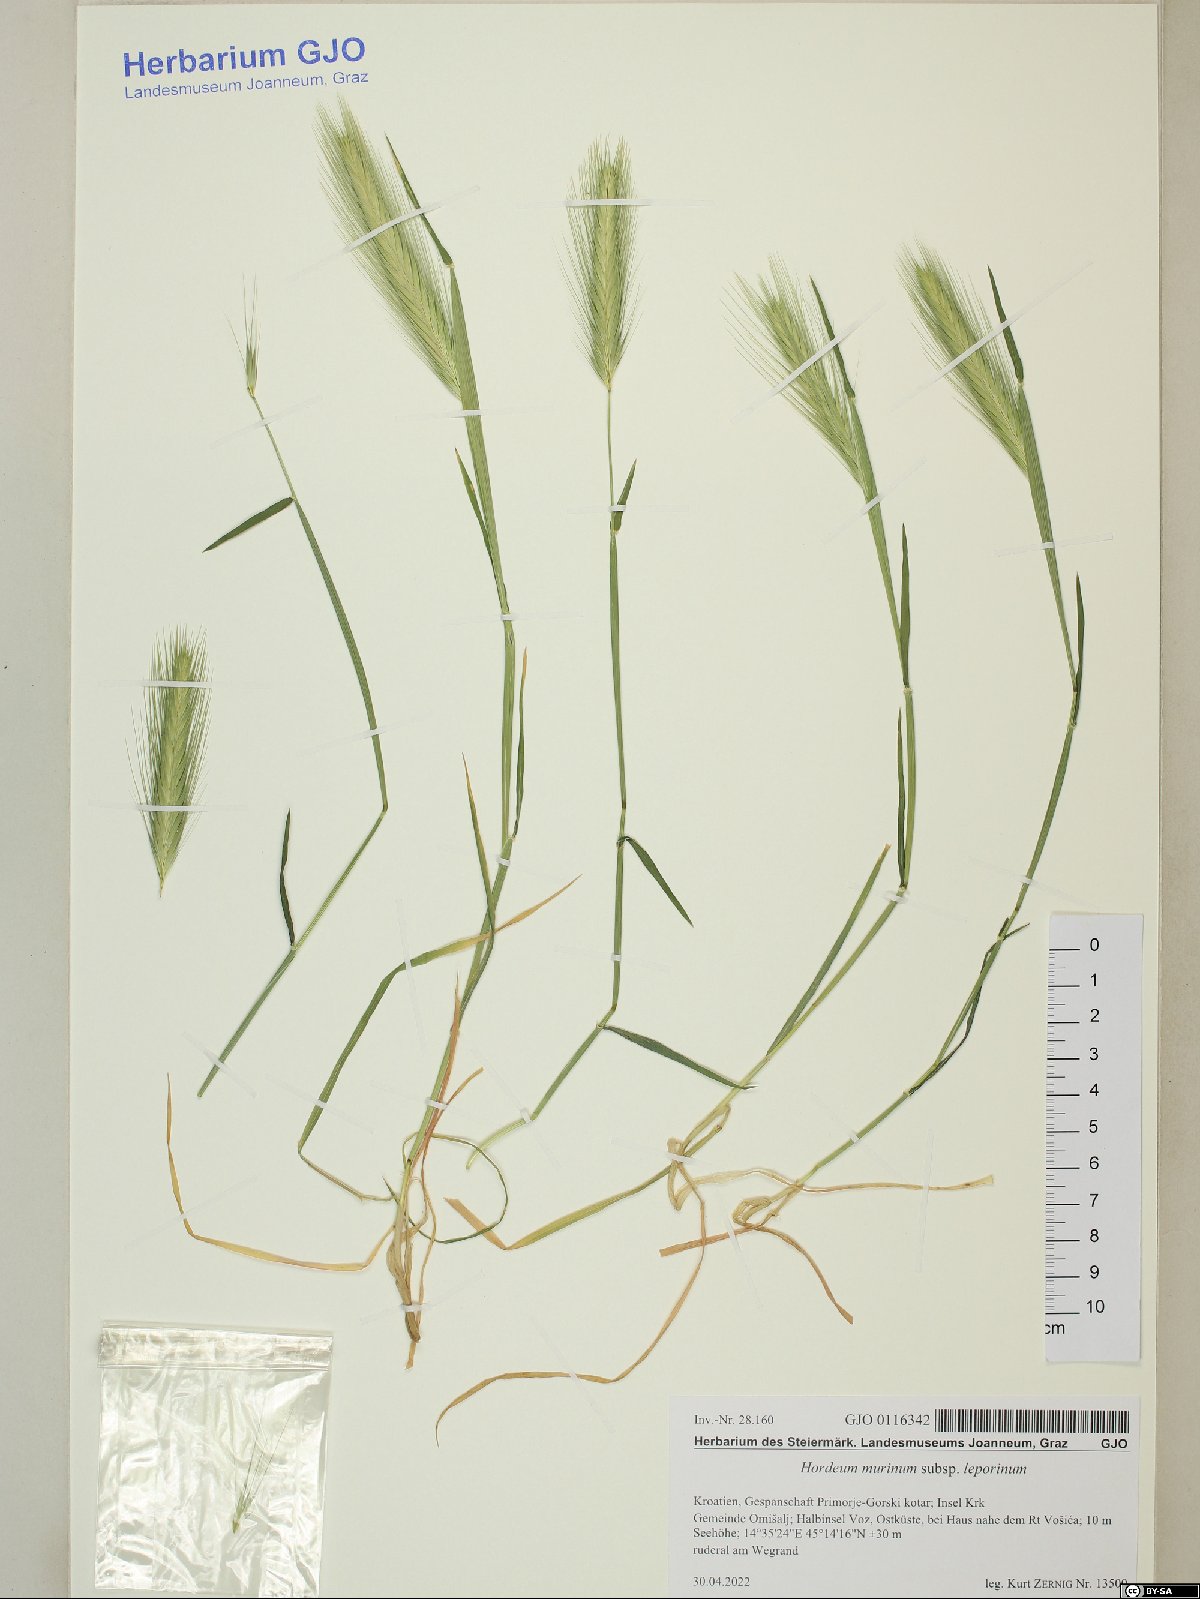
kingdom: Plantae
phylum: Tracheophyta
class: Liliopsida
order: Poales
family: Poaceae
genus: Hordeum
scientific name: Hordeum murinum
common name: Wall barley
